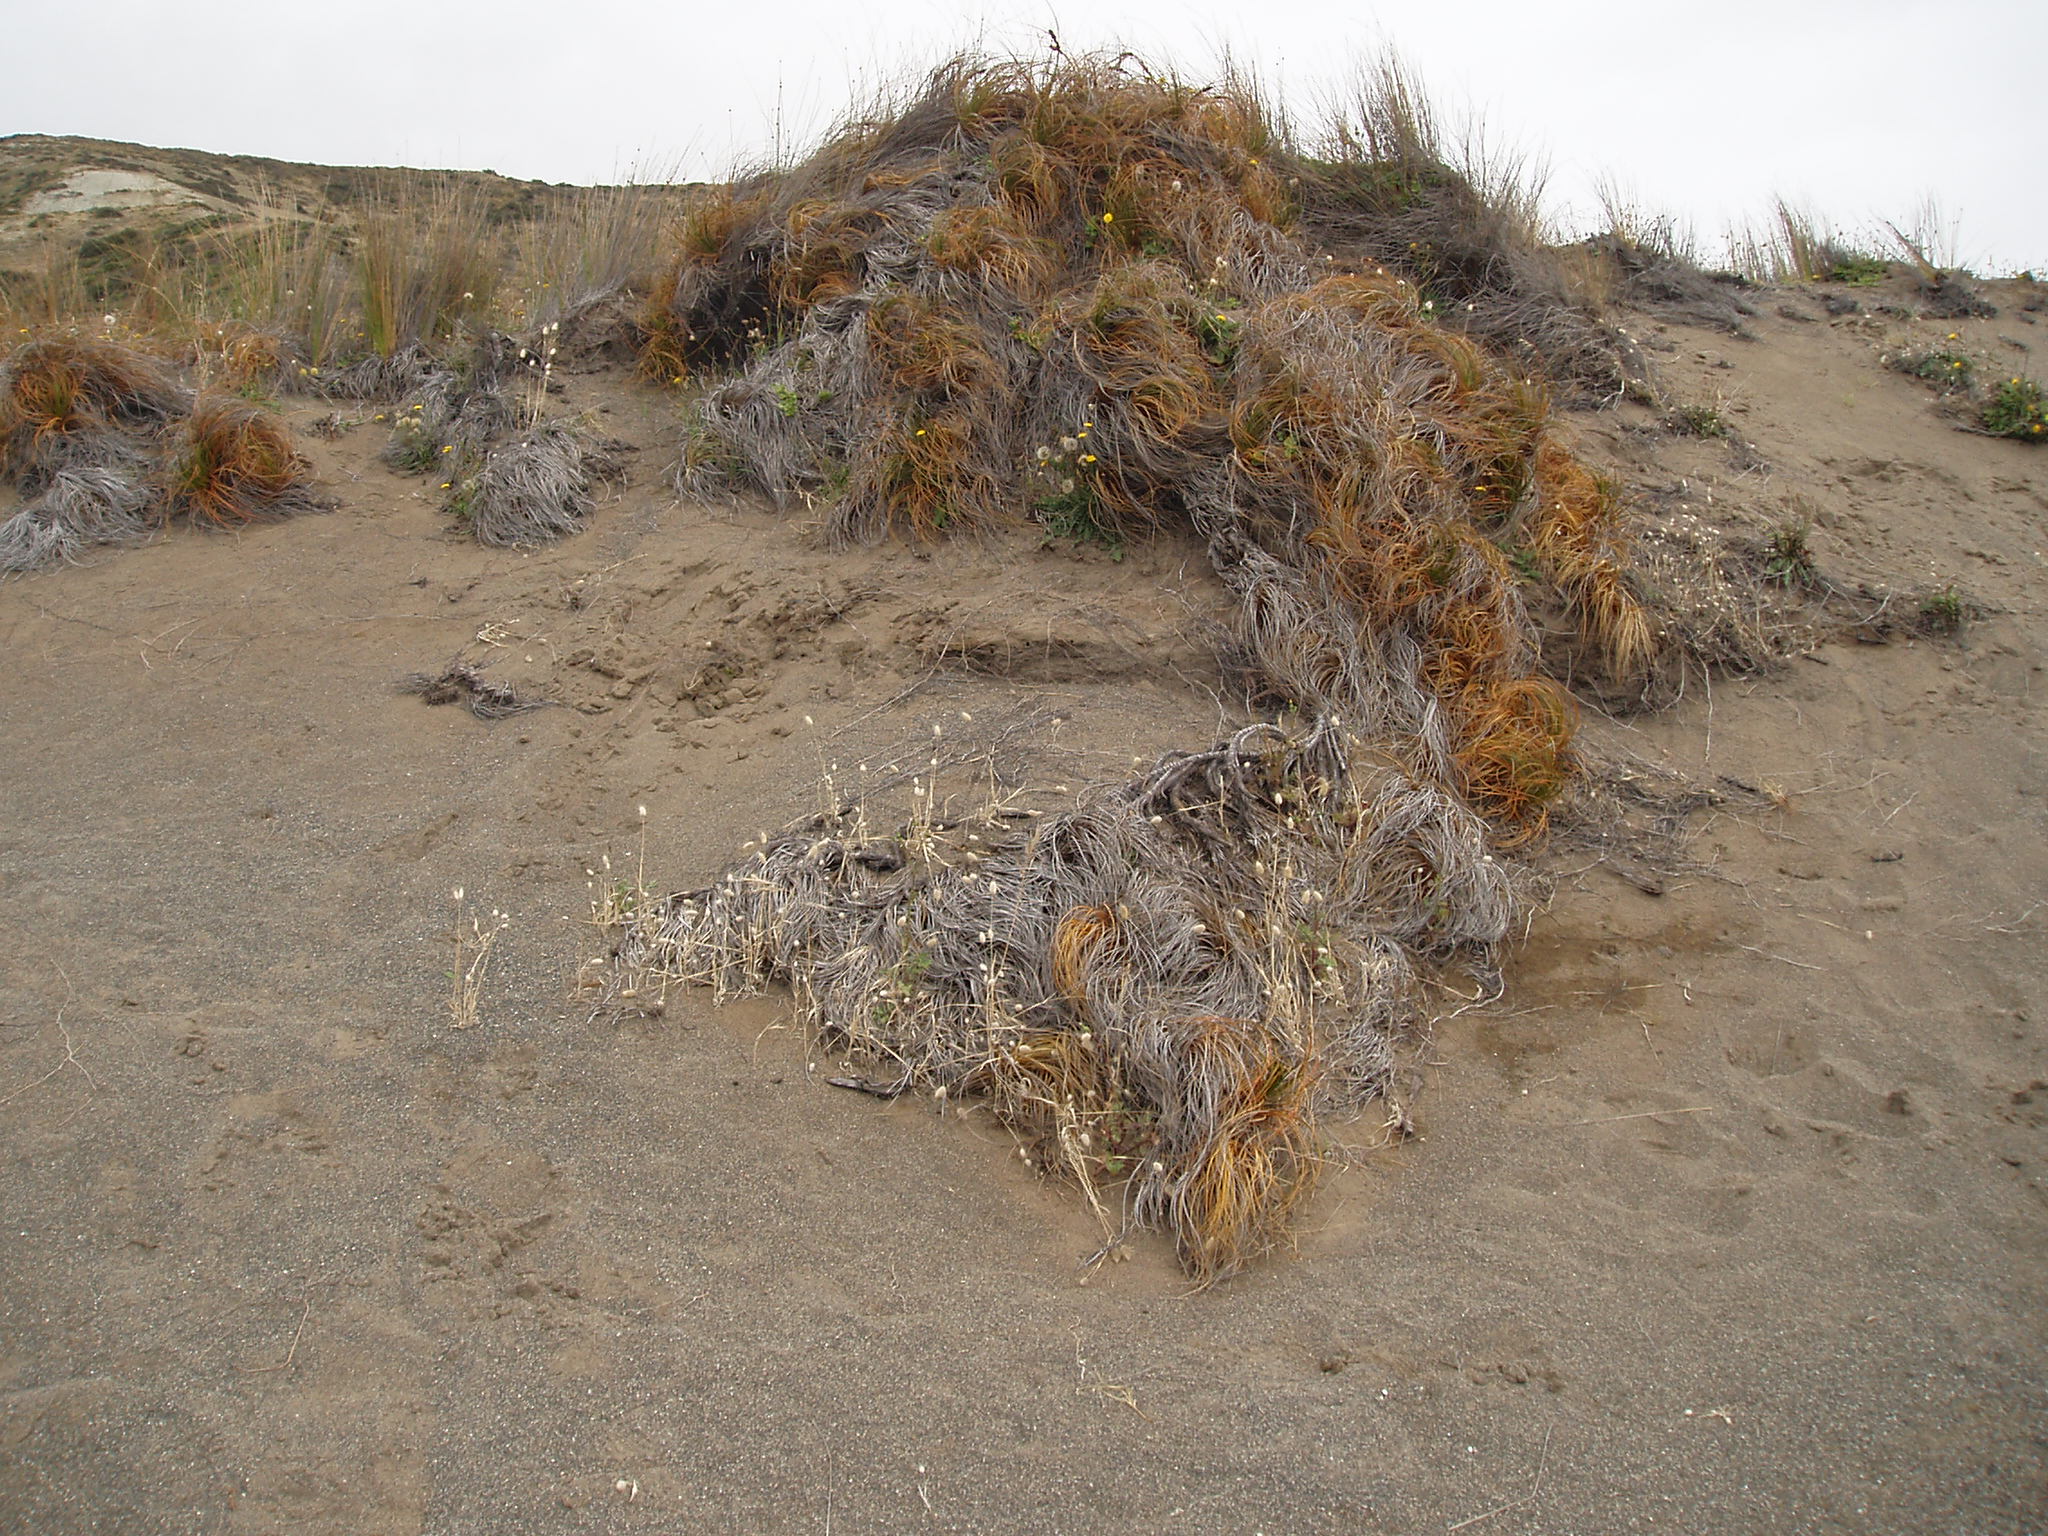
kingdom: Plantae
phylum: Tracheophyta
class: Liliopsida
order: Poales
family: Cyperaceae
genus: Ficinia
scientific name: Ficinia spiralis
